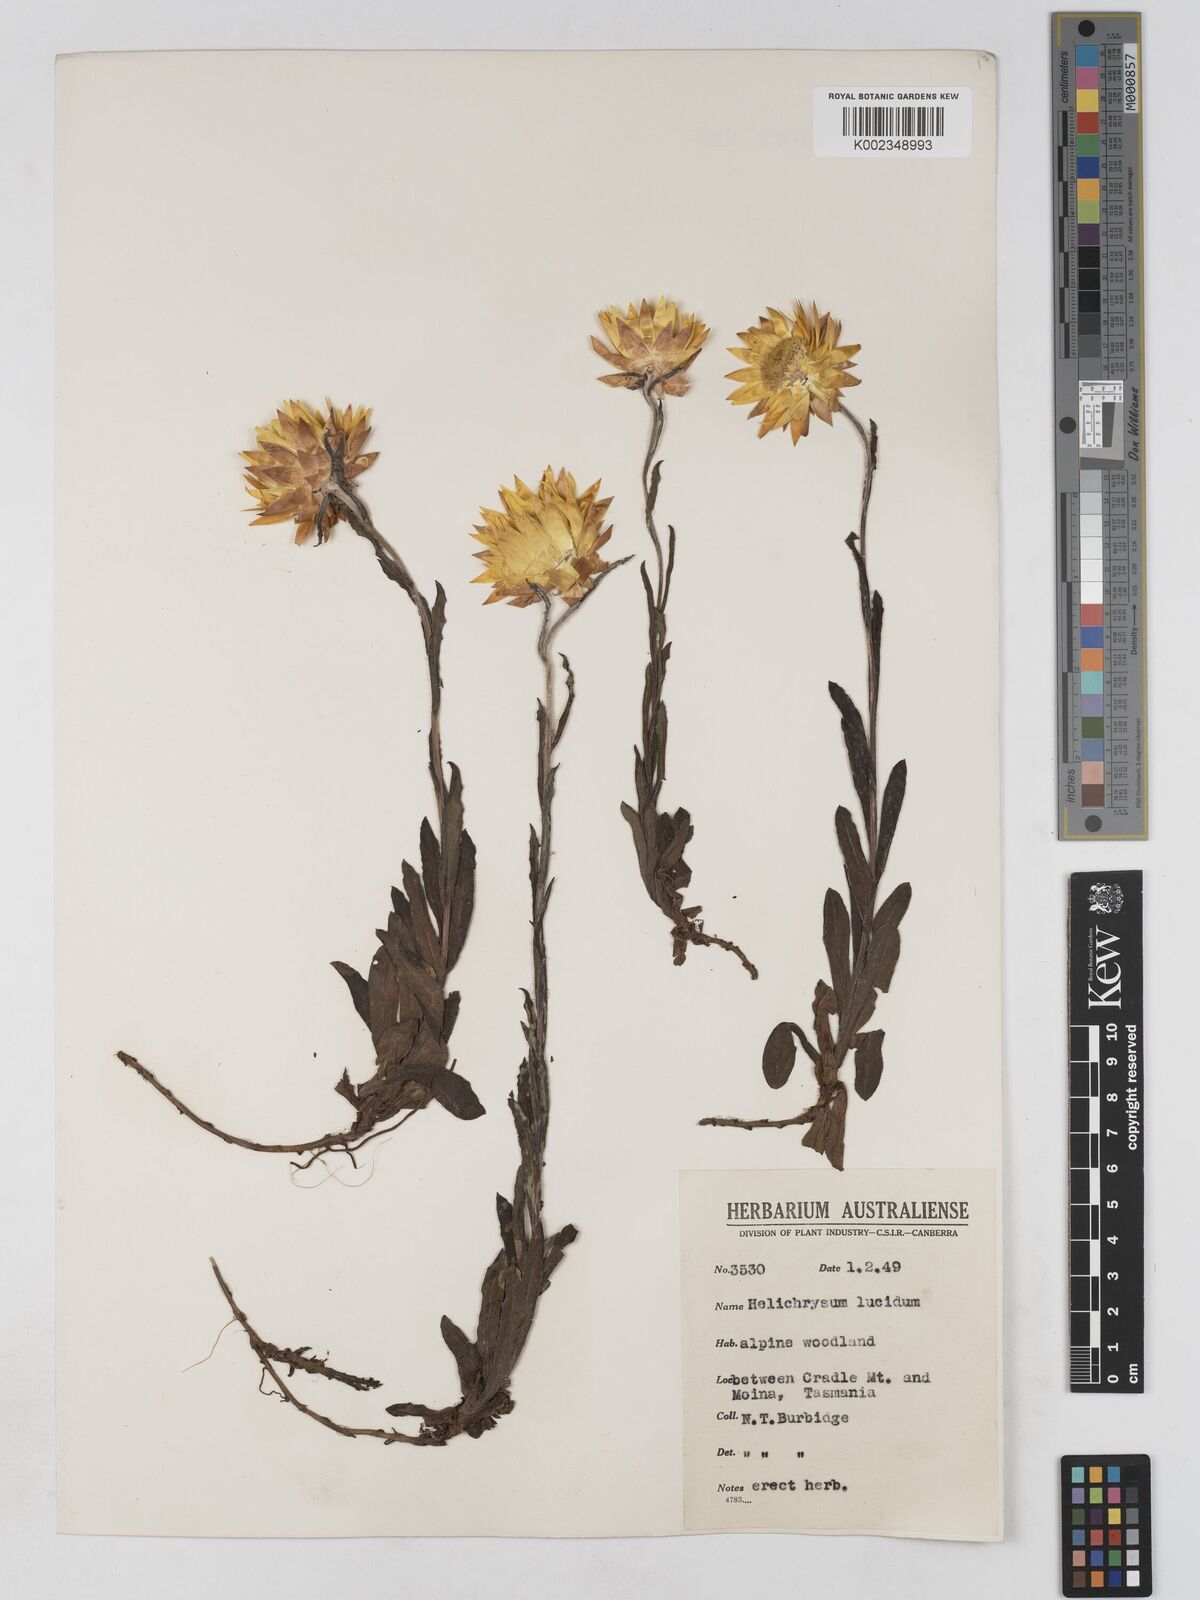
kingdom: Plantae
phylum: Tracheophyta
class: Magnoliopsida
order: Asterales
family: Asteraceae
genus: Xerochrysum
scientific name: Xerochrysum bracteatum
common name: Bracted strawflower
